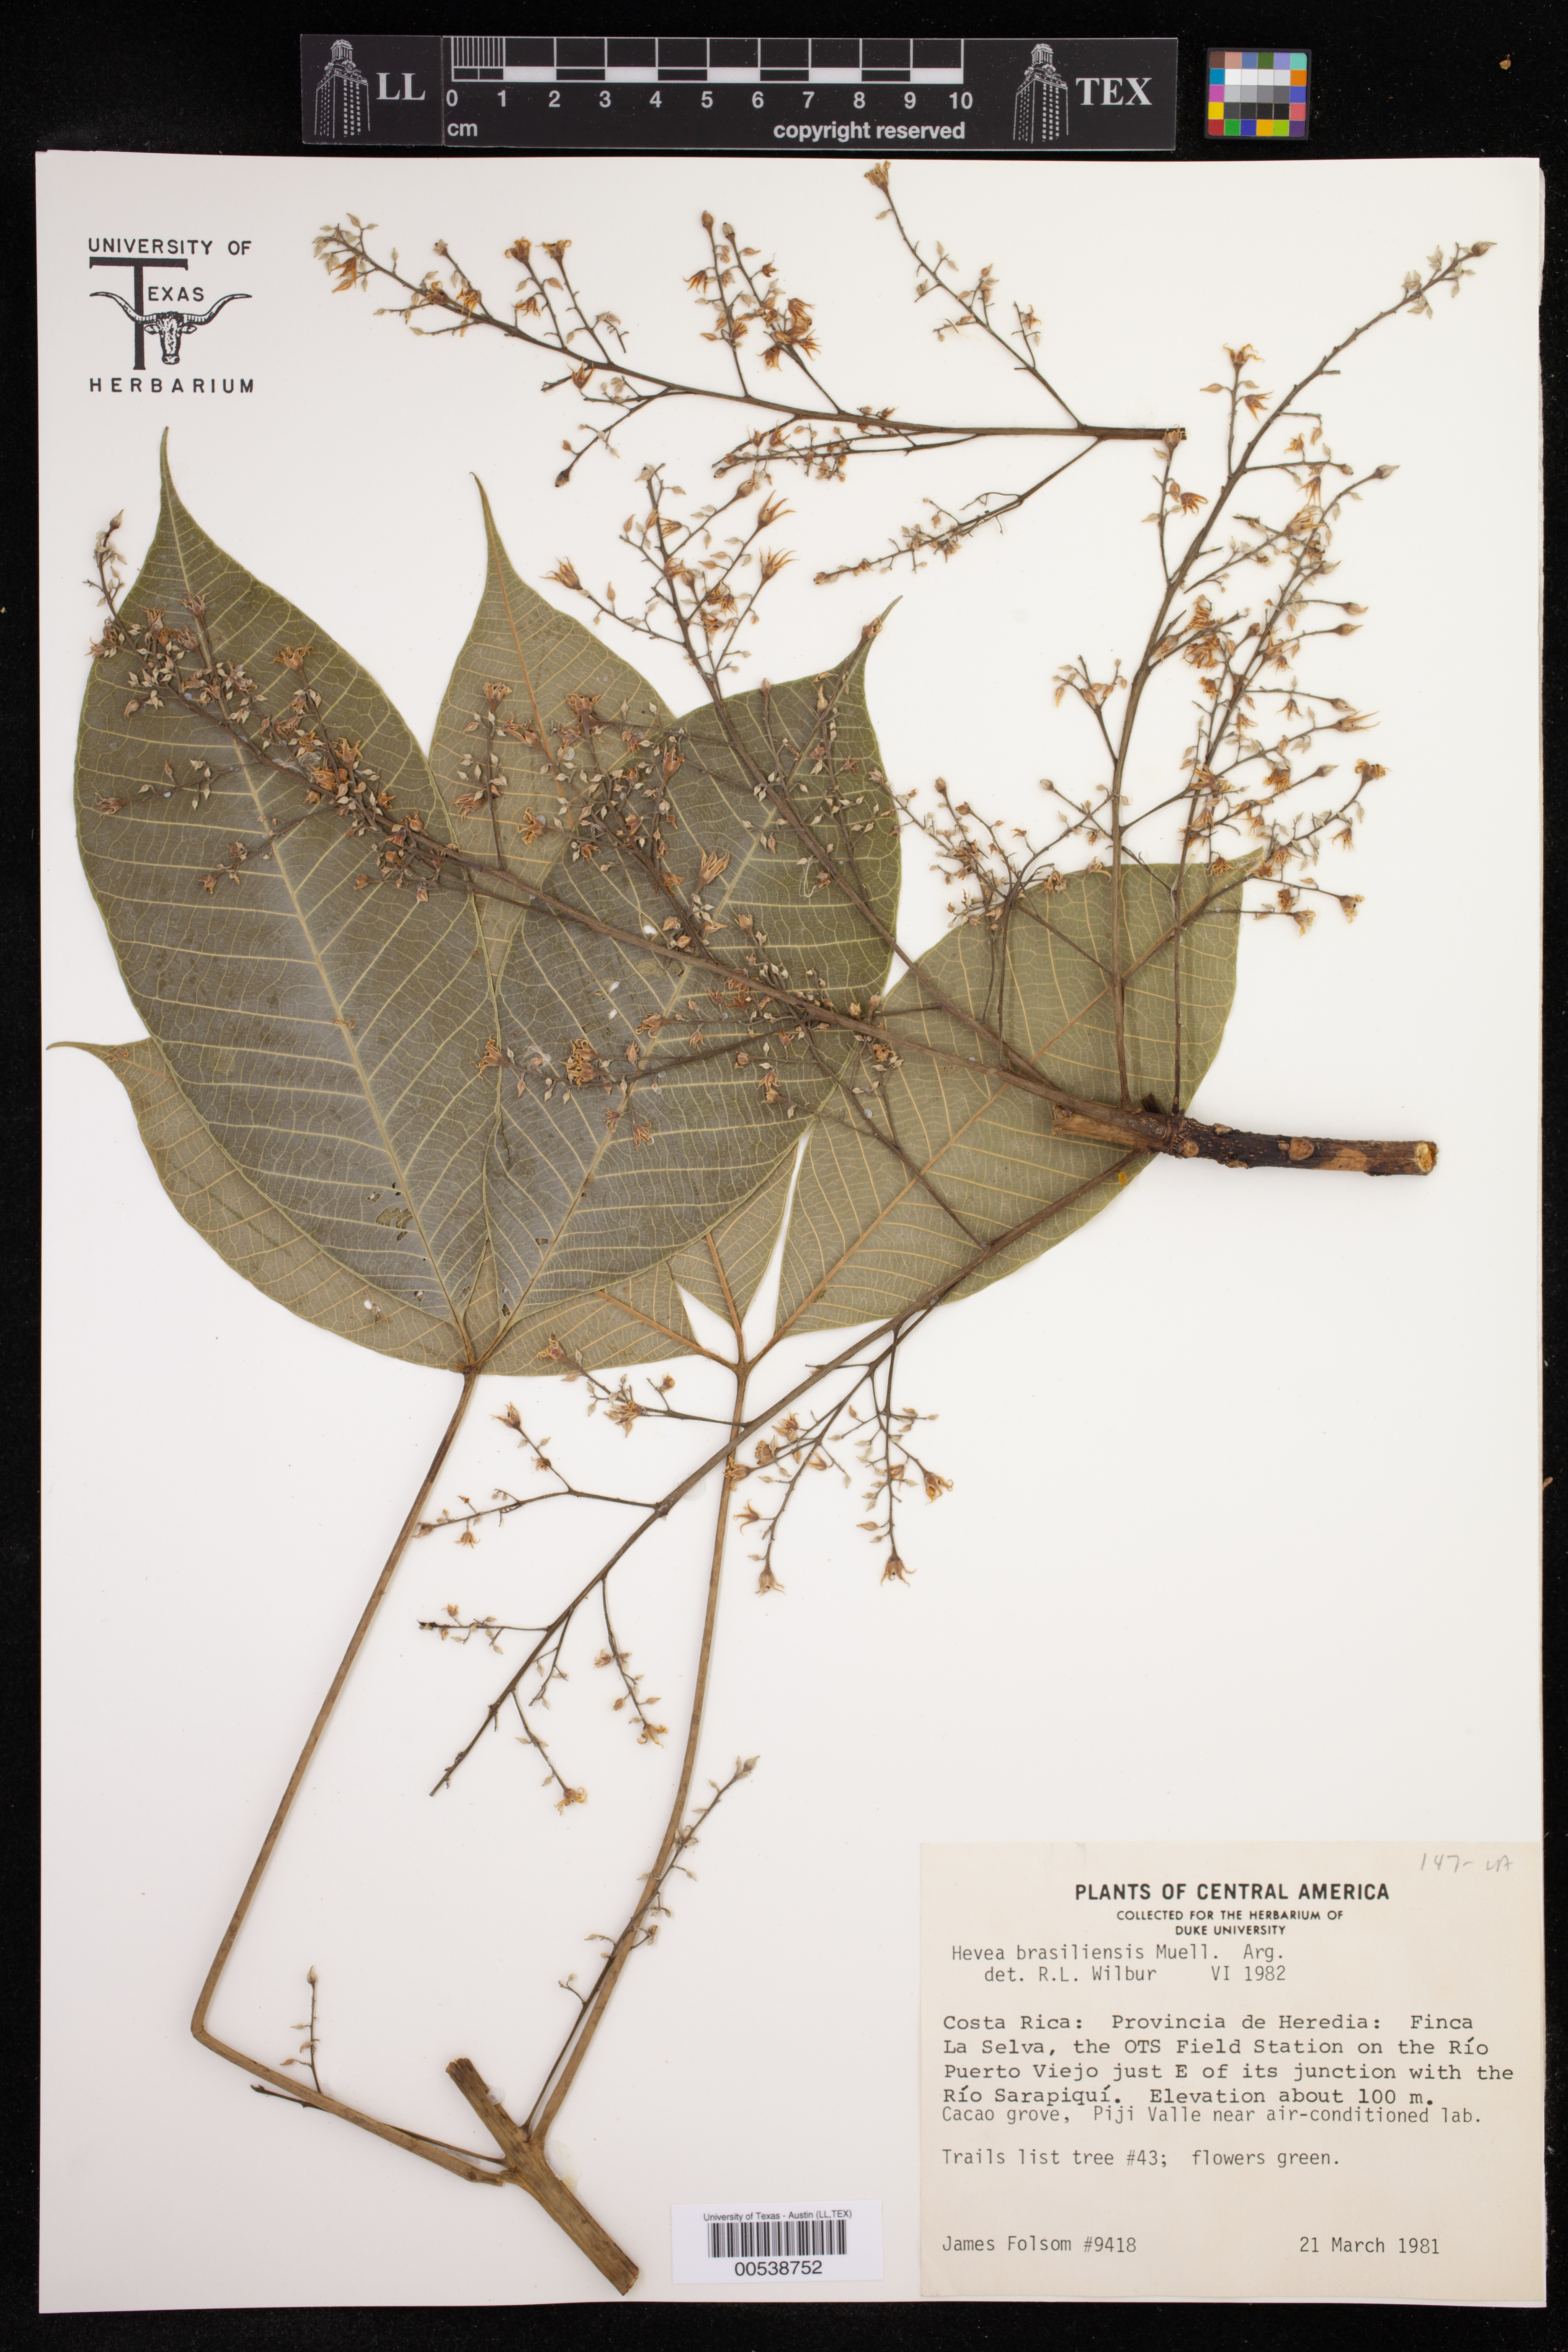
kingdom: Plantae
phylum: Tracheophyta
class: Magnoliopsida
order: Malpighiales
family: Euphorbiaceae
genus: Hevea
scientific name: Hevea brasiliensis
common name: Natural rubber
